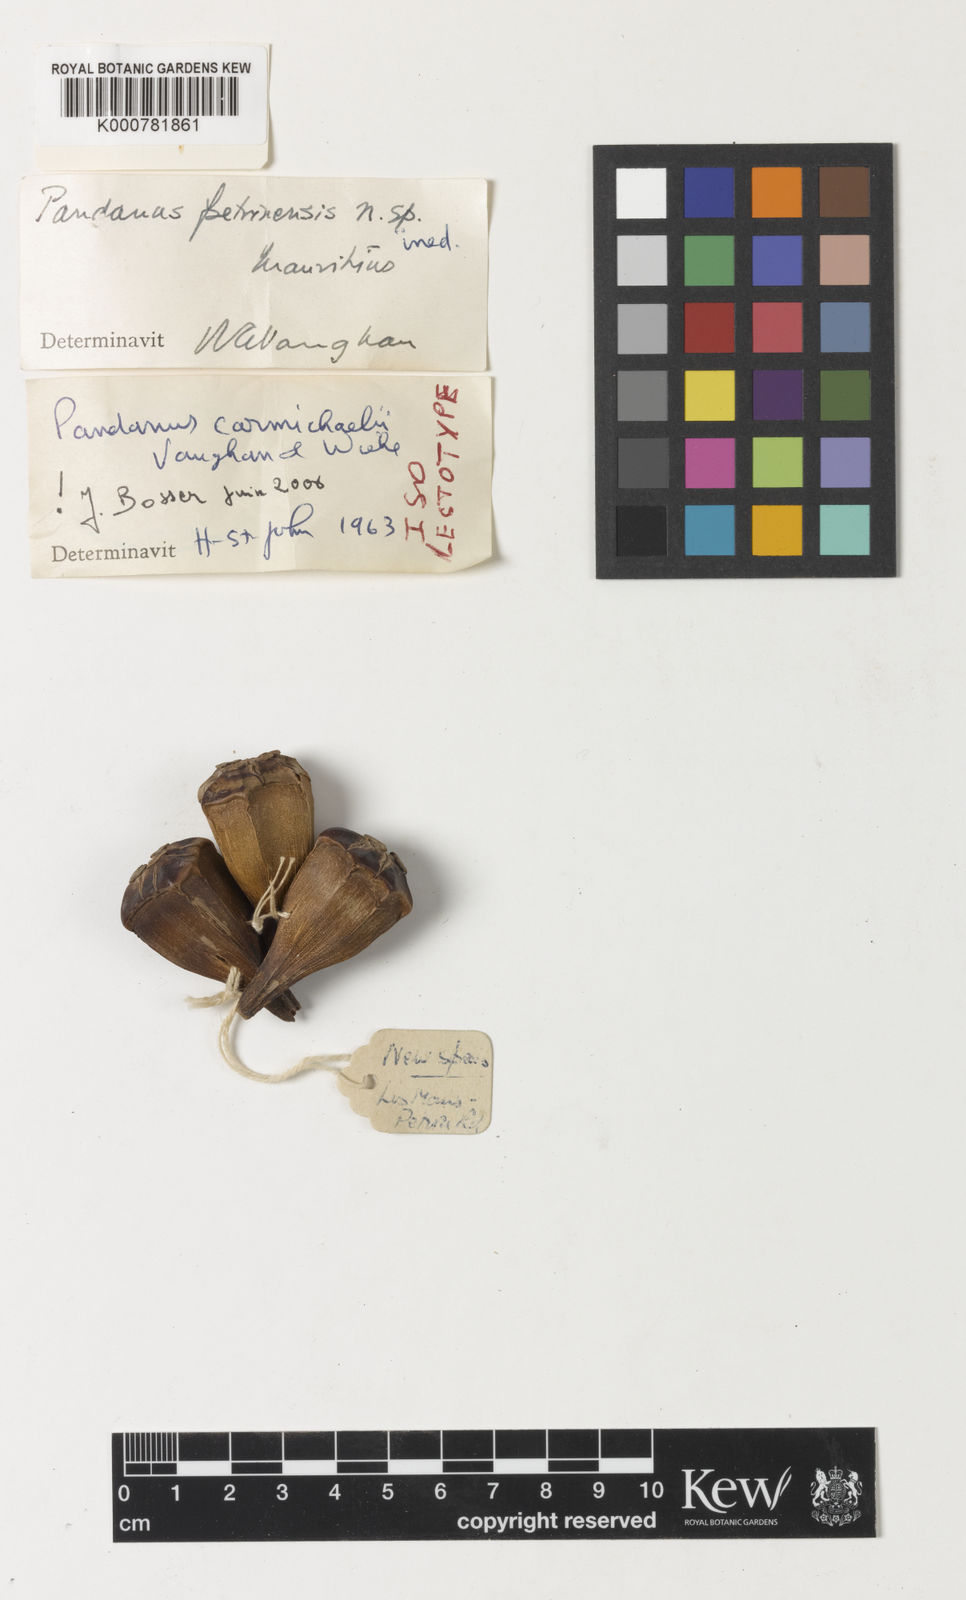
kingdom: Plantae
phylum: Tracheophyta
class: Liliopsida
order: Pandanales
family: Pandanaceae
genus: Pandanus
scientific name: Pandanus carmichaelii
